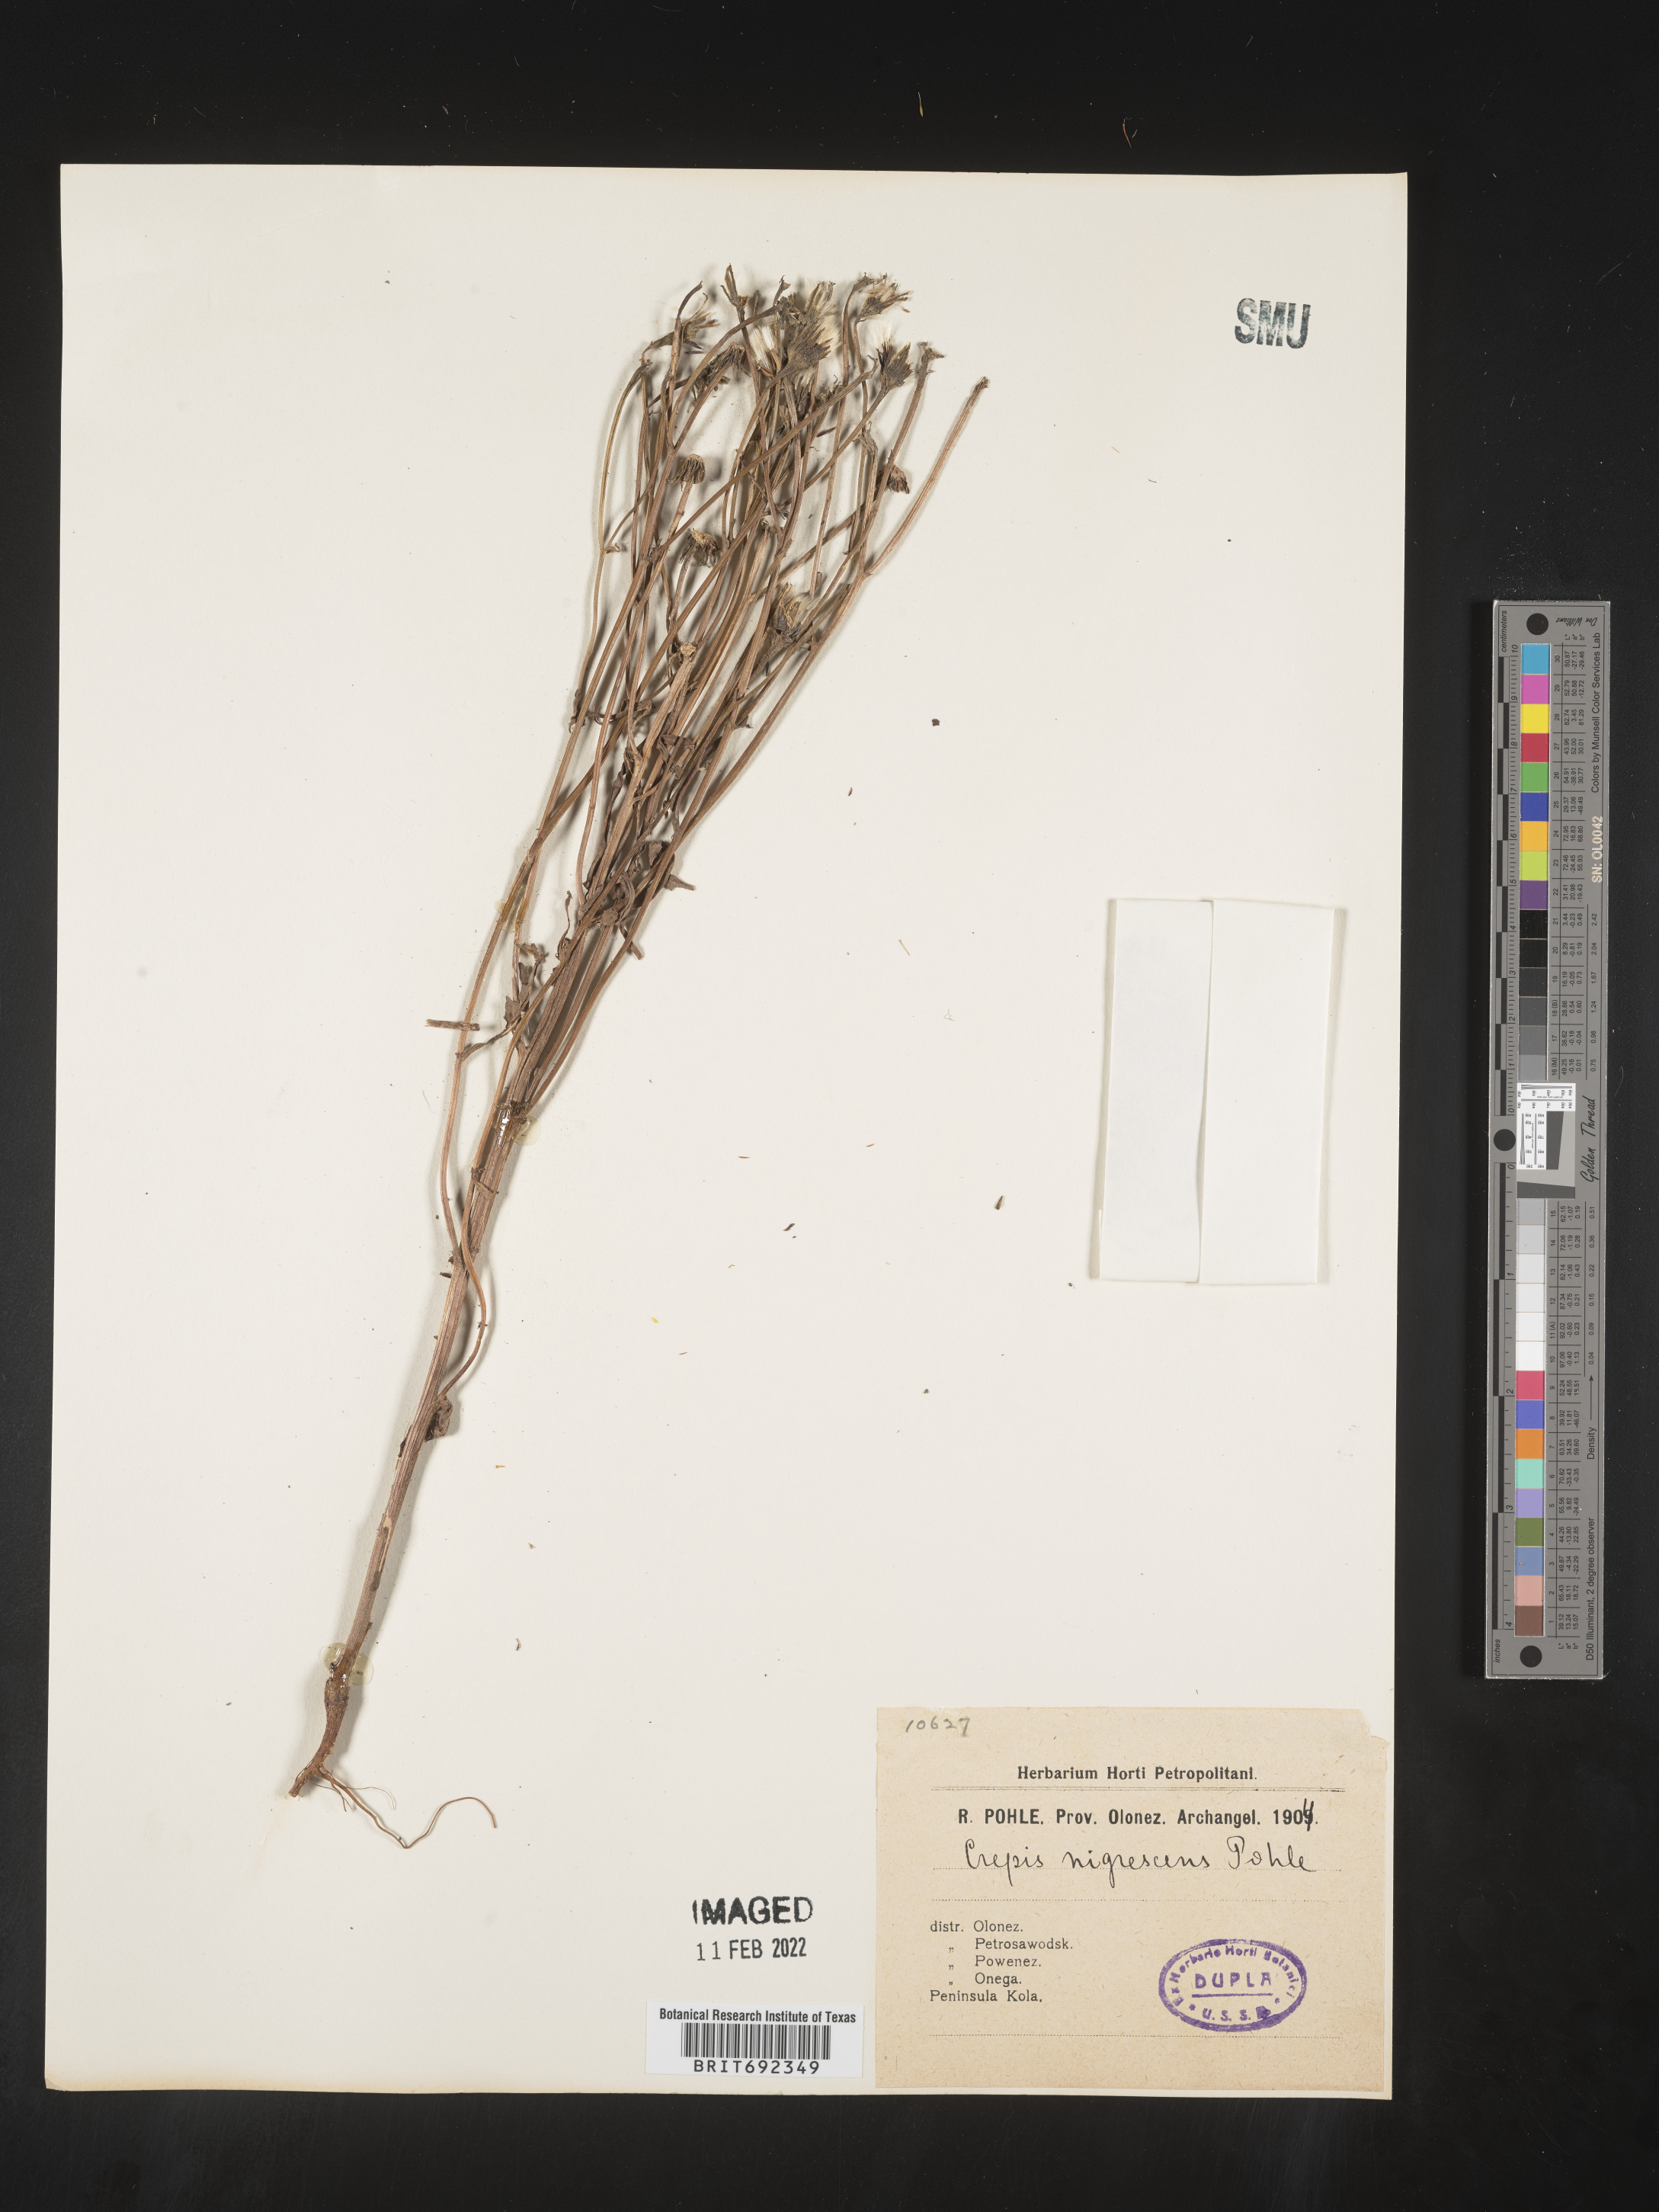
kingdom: Plantae
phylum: Tracheophyta
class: Magnoliopsida
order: Asterales
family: Asteraceae
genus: Crepis
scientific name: Crepis
